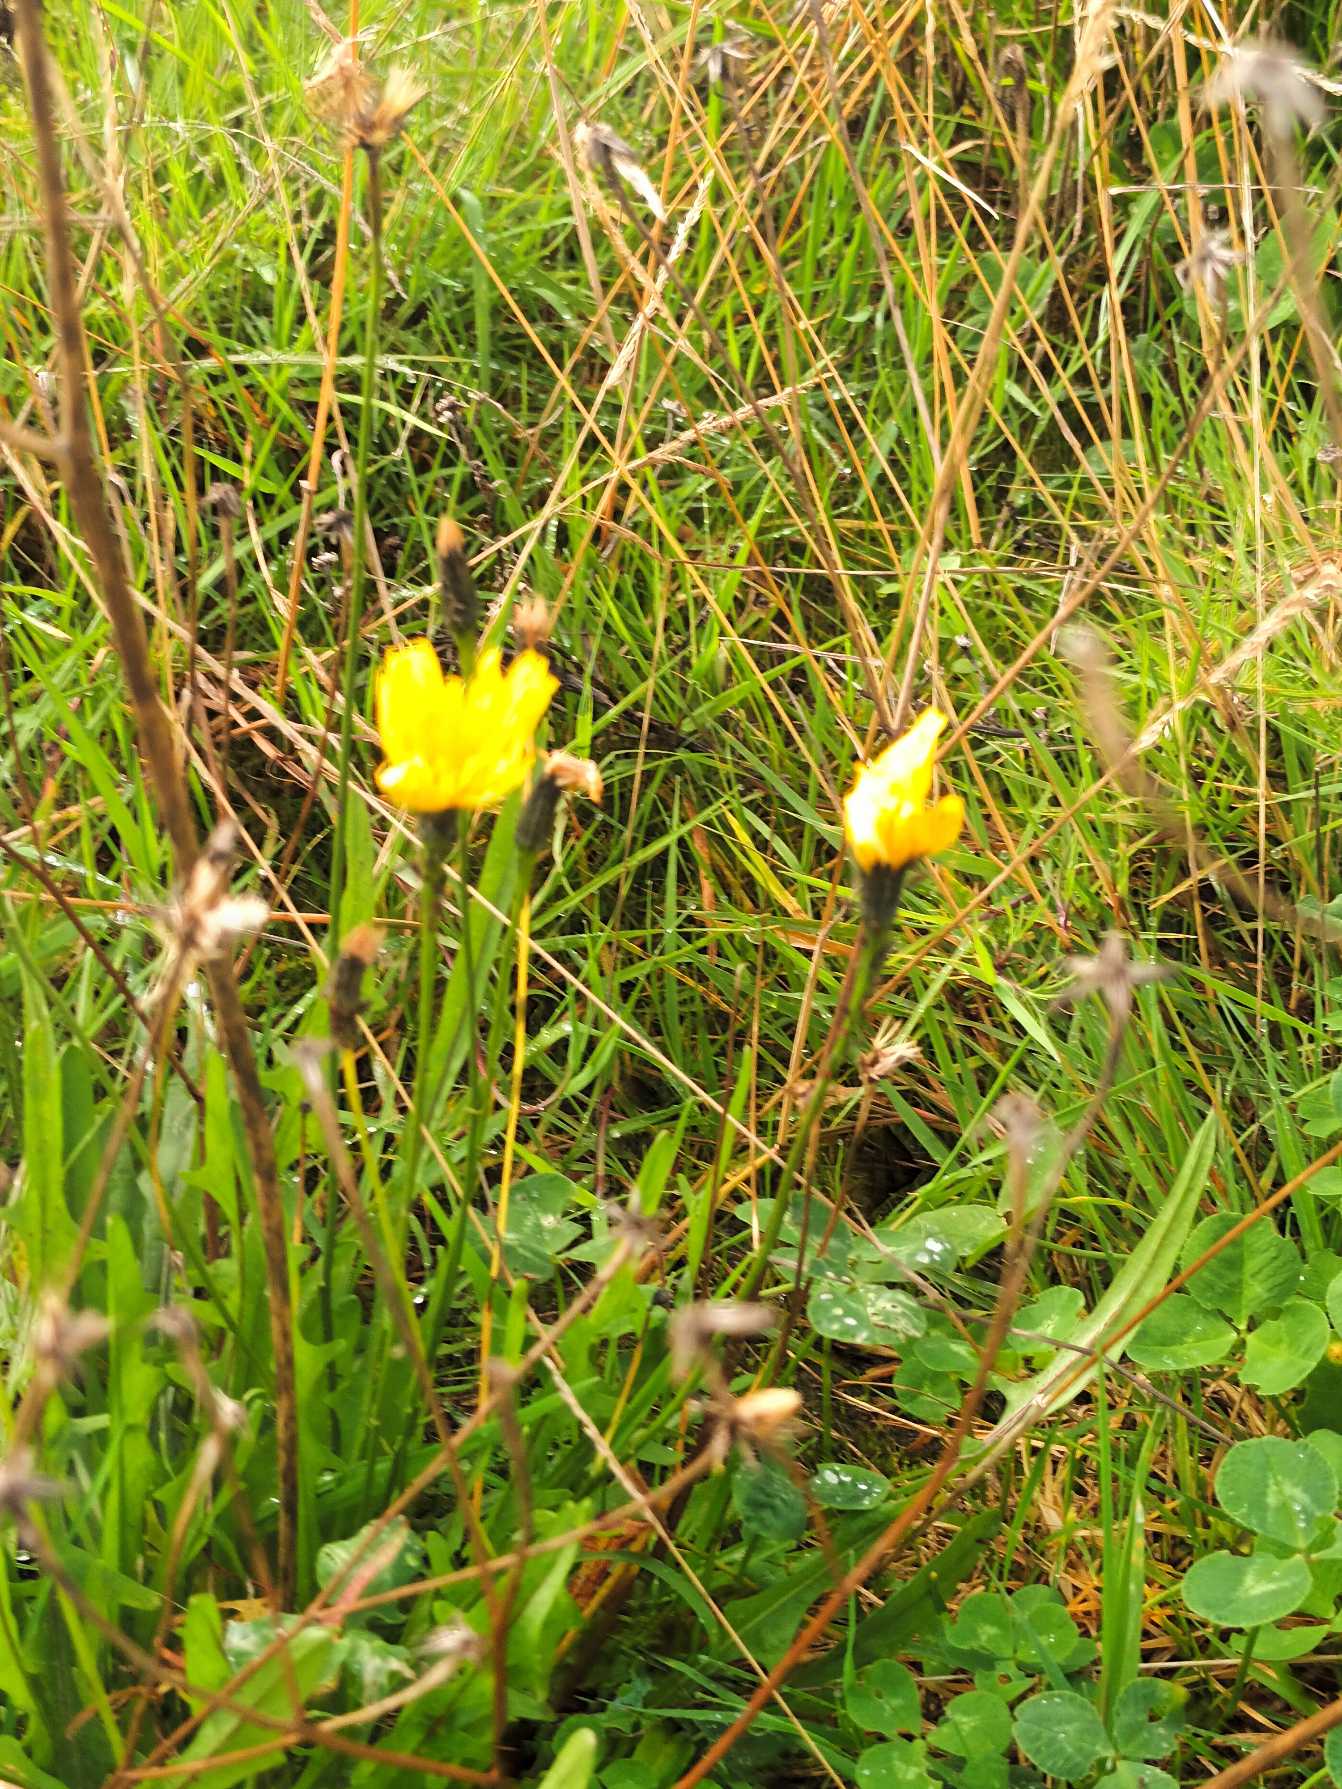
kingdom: Plantae
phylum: Tracheophyta
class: Magnoliopsida
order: Asterales
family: Asteraceae
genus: Scorzoneroides
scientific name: Scorzoneroides autumnalis
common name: Høst-borst
